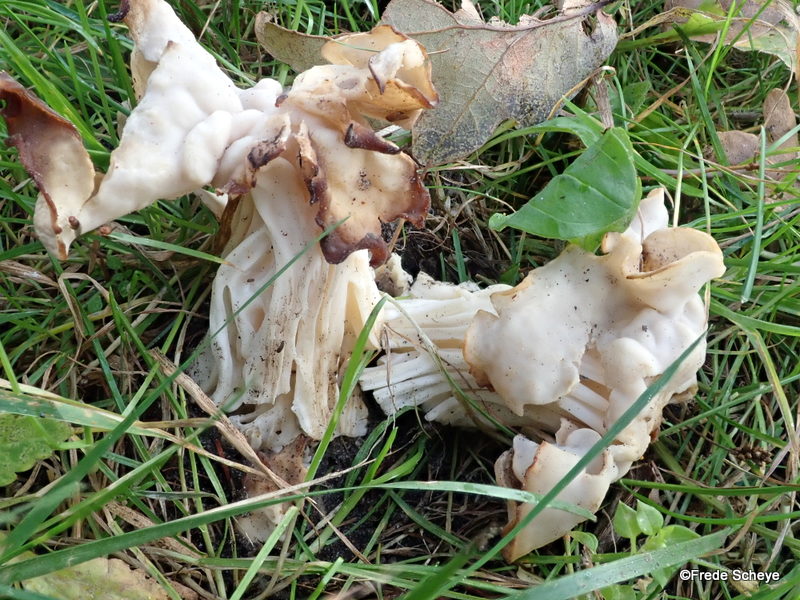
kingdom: Fungi
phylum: Ascomycota
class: Pezizomycetes
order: Pezizales
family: Helvellaceae
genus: Helvella
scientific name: Helvella crispa
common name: kruset foldhat
